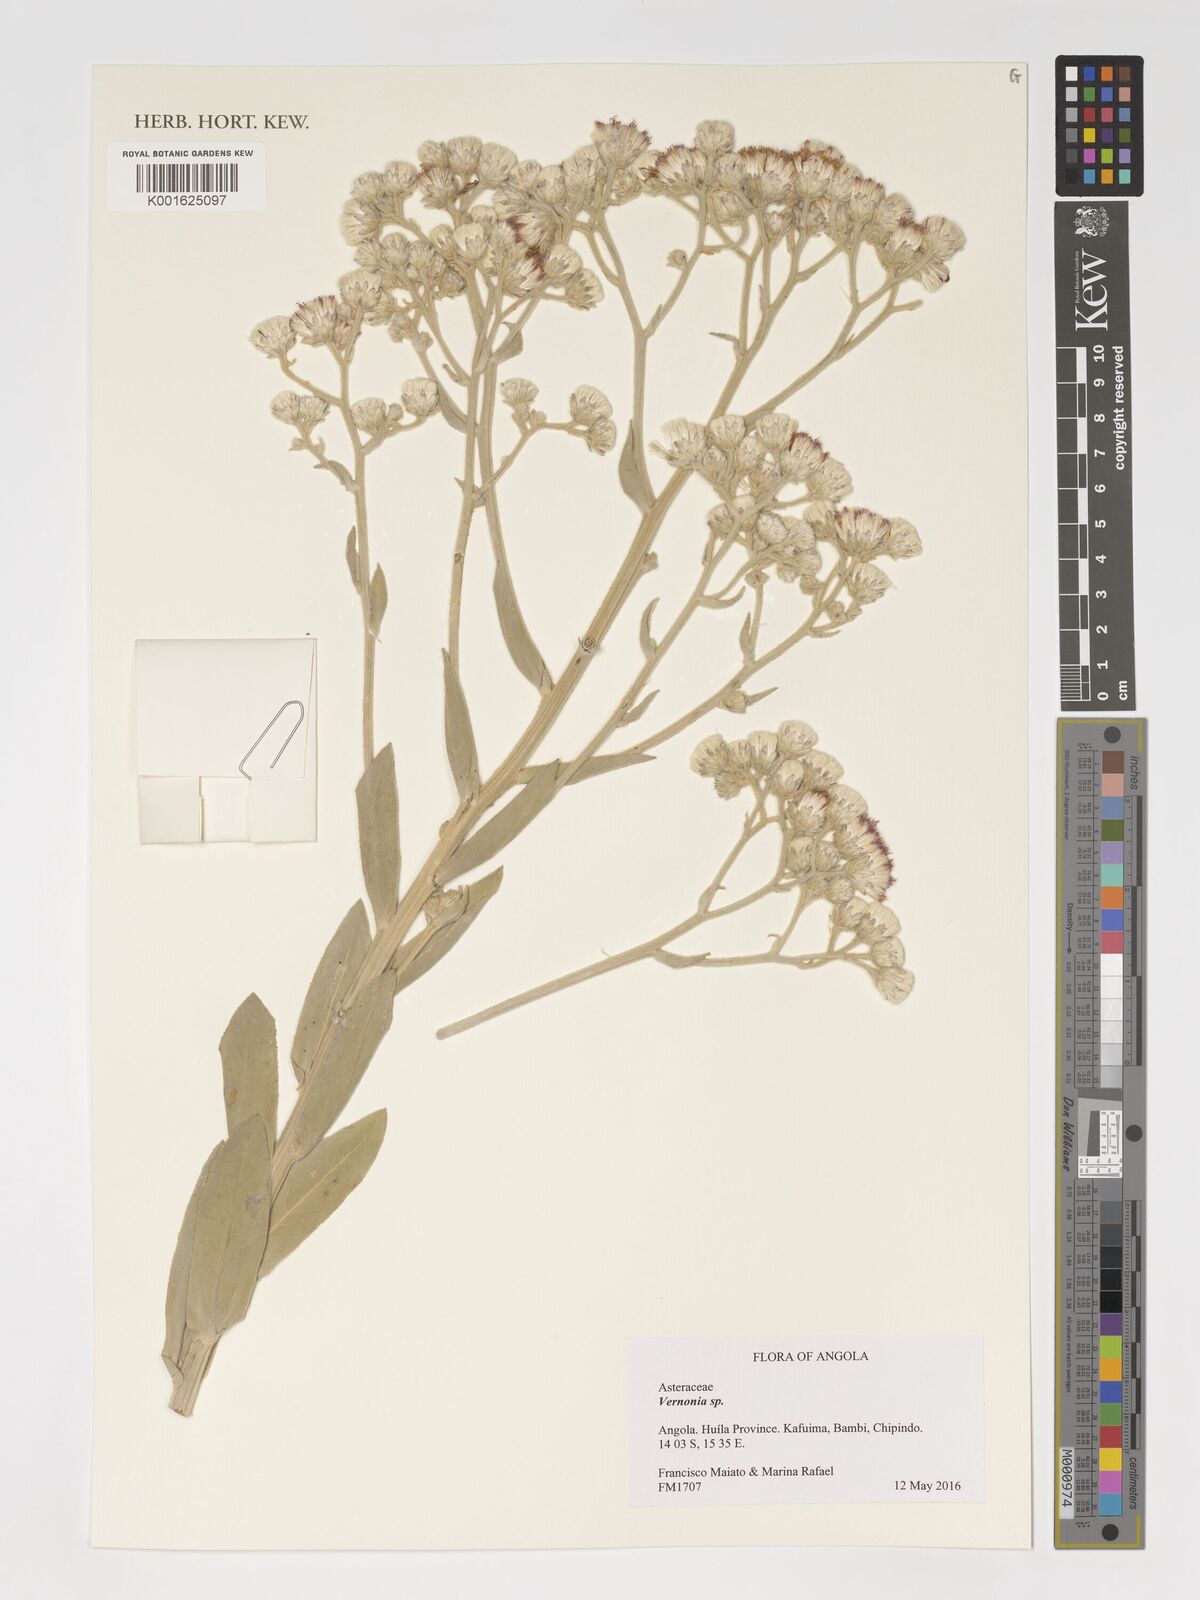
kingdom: Plantae
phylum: Tracheophyta
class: Magnoliopsida
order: Asterales
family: Asteraceae
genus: Vernonia
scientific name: Vernonia
